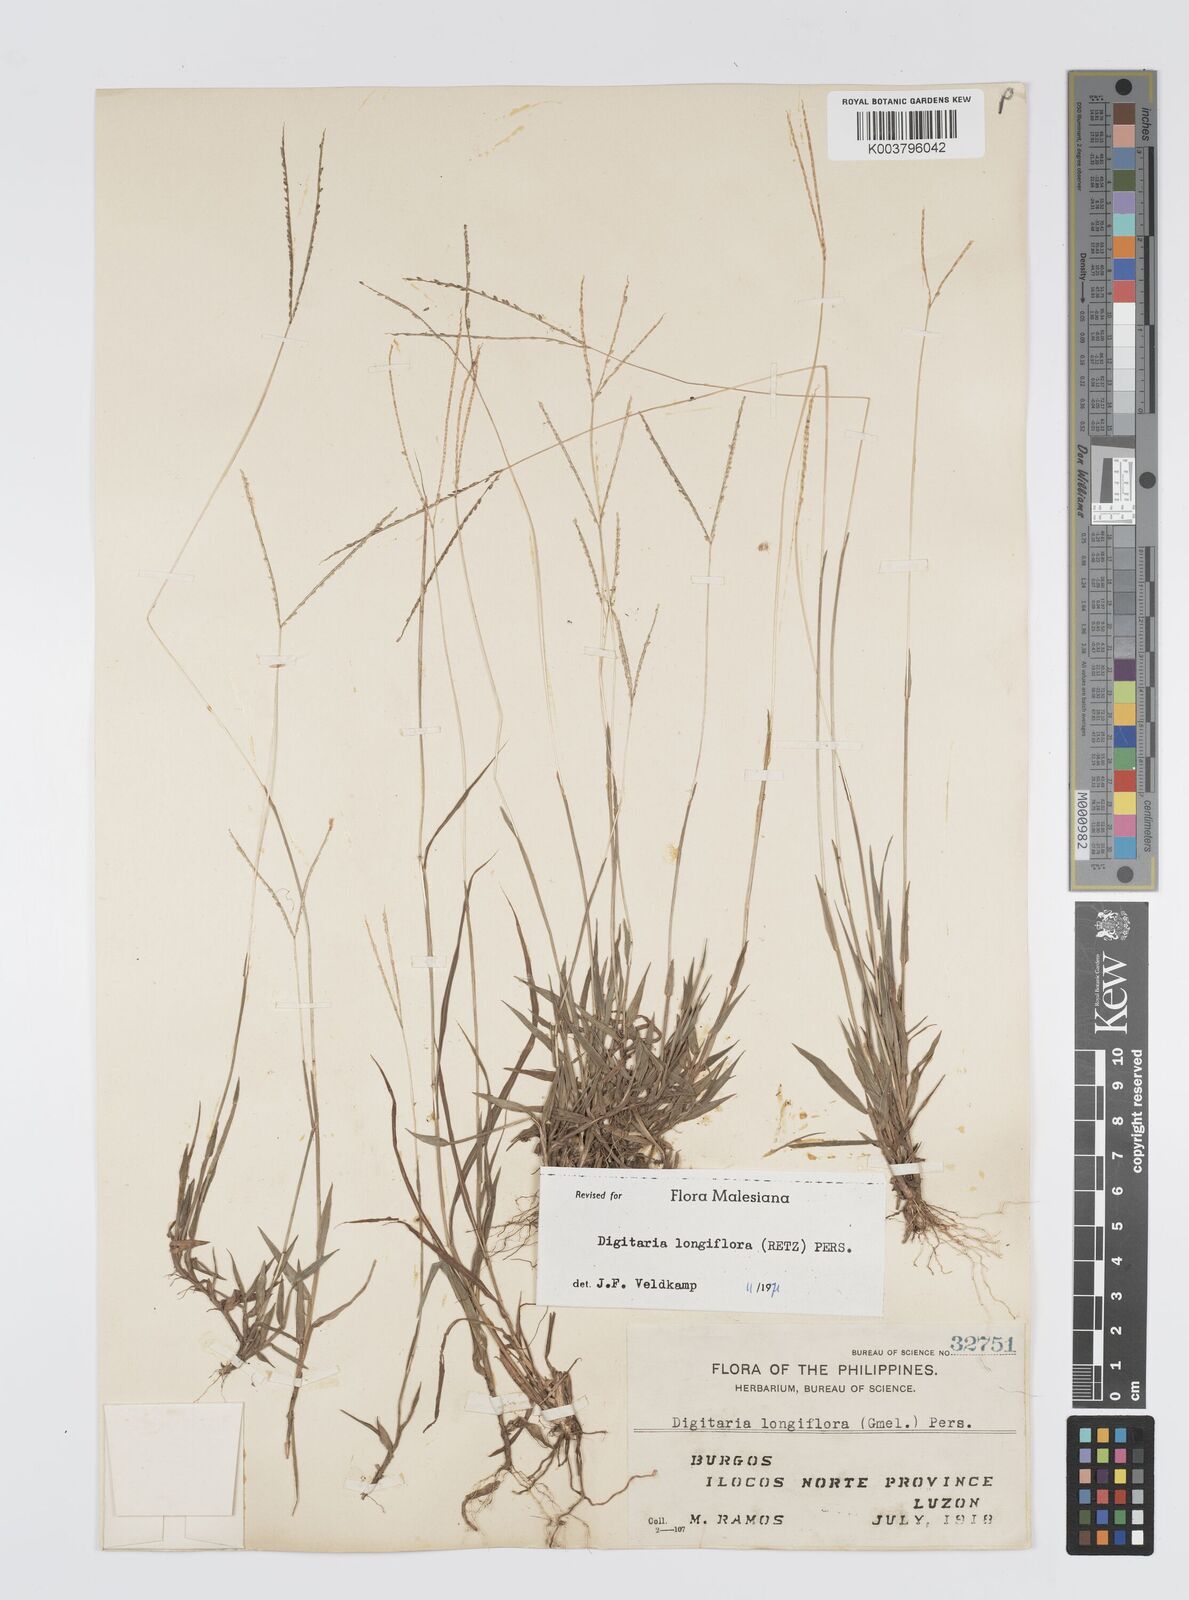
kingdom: Plantae
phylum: Tracheophyta
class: Liliopsida
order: Poales
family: Poaceae
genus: Digitaria
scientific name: Digitaria longiflora
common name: Wire crabgrass
